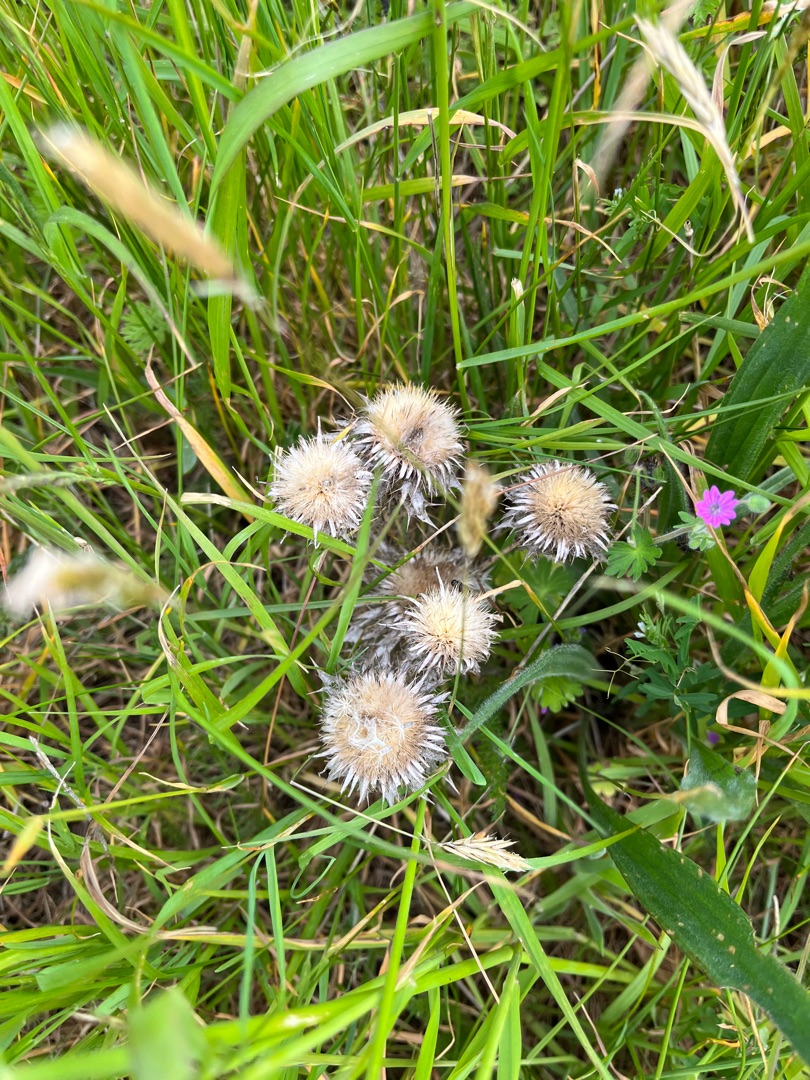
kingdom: Plantae
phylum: Tracheophyta
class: Magnoliopsida
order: Asterales
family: Asteraceae
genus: Carlina
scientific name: Carlina vulgaris
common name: Bakketidsel
